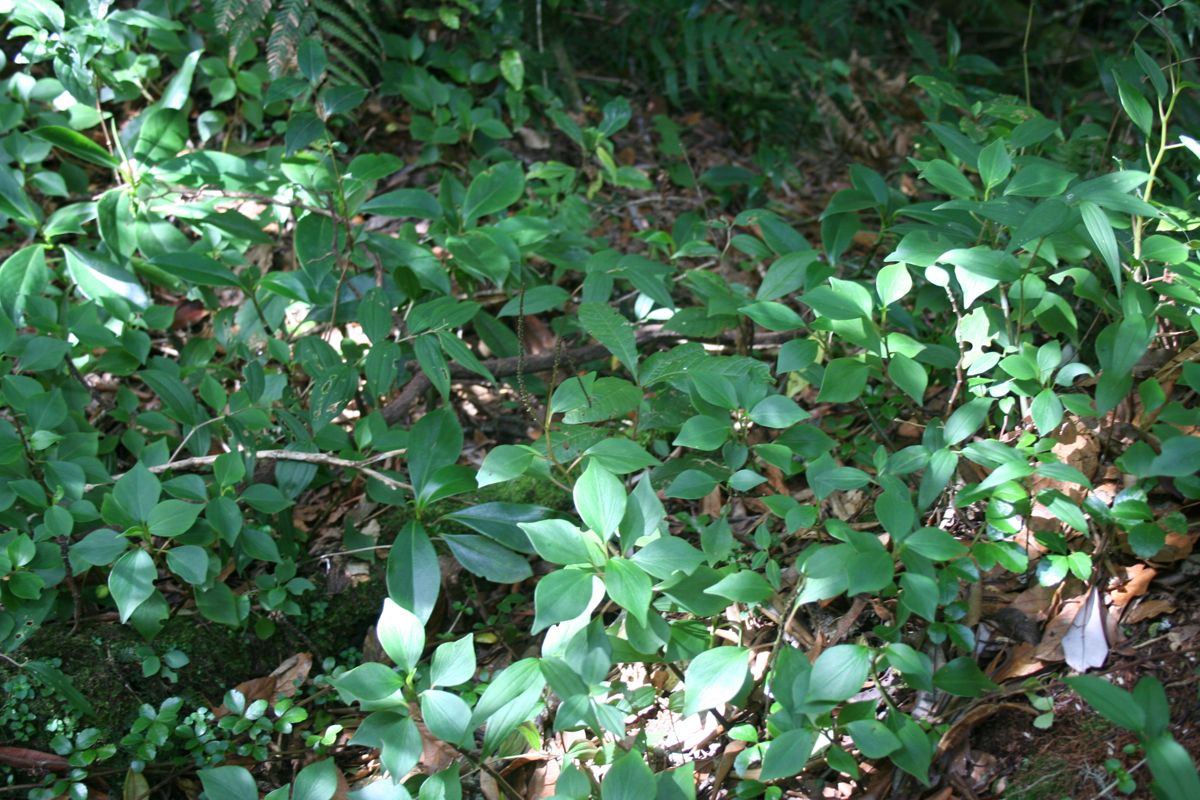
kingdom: Plantae
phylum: Tracheophyta
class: Magnoliopsida
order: Piperales
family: Piperaceae
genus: Peperomia
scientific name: Peperomia
